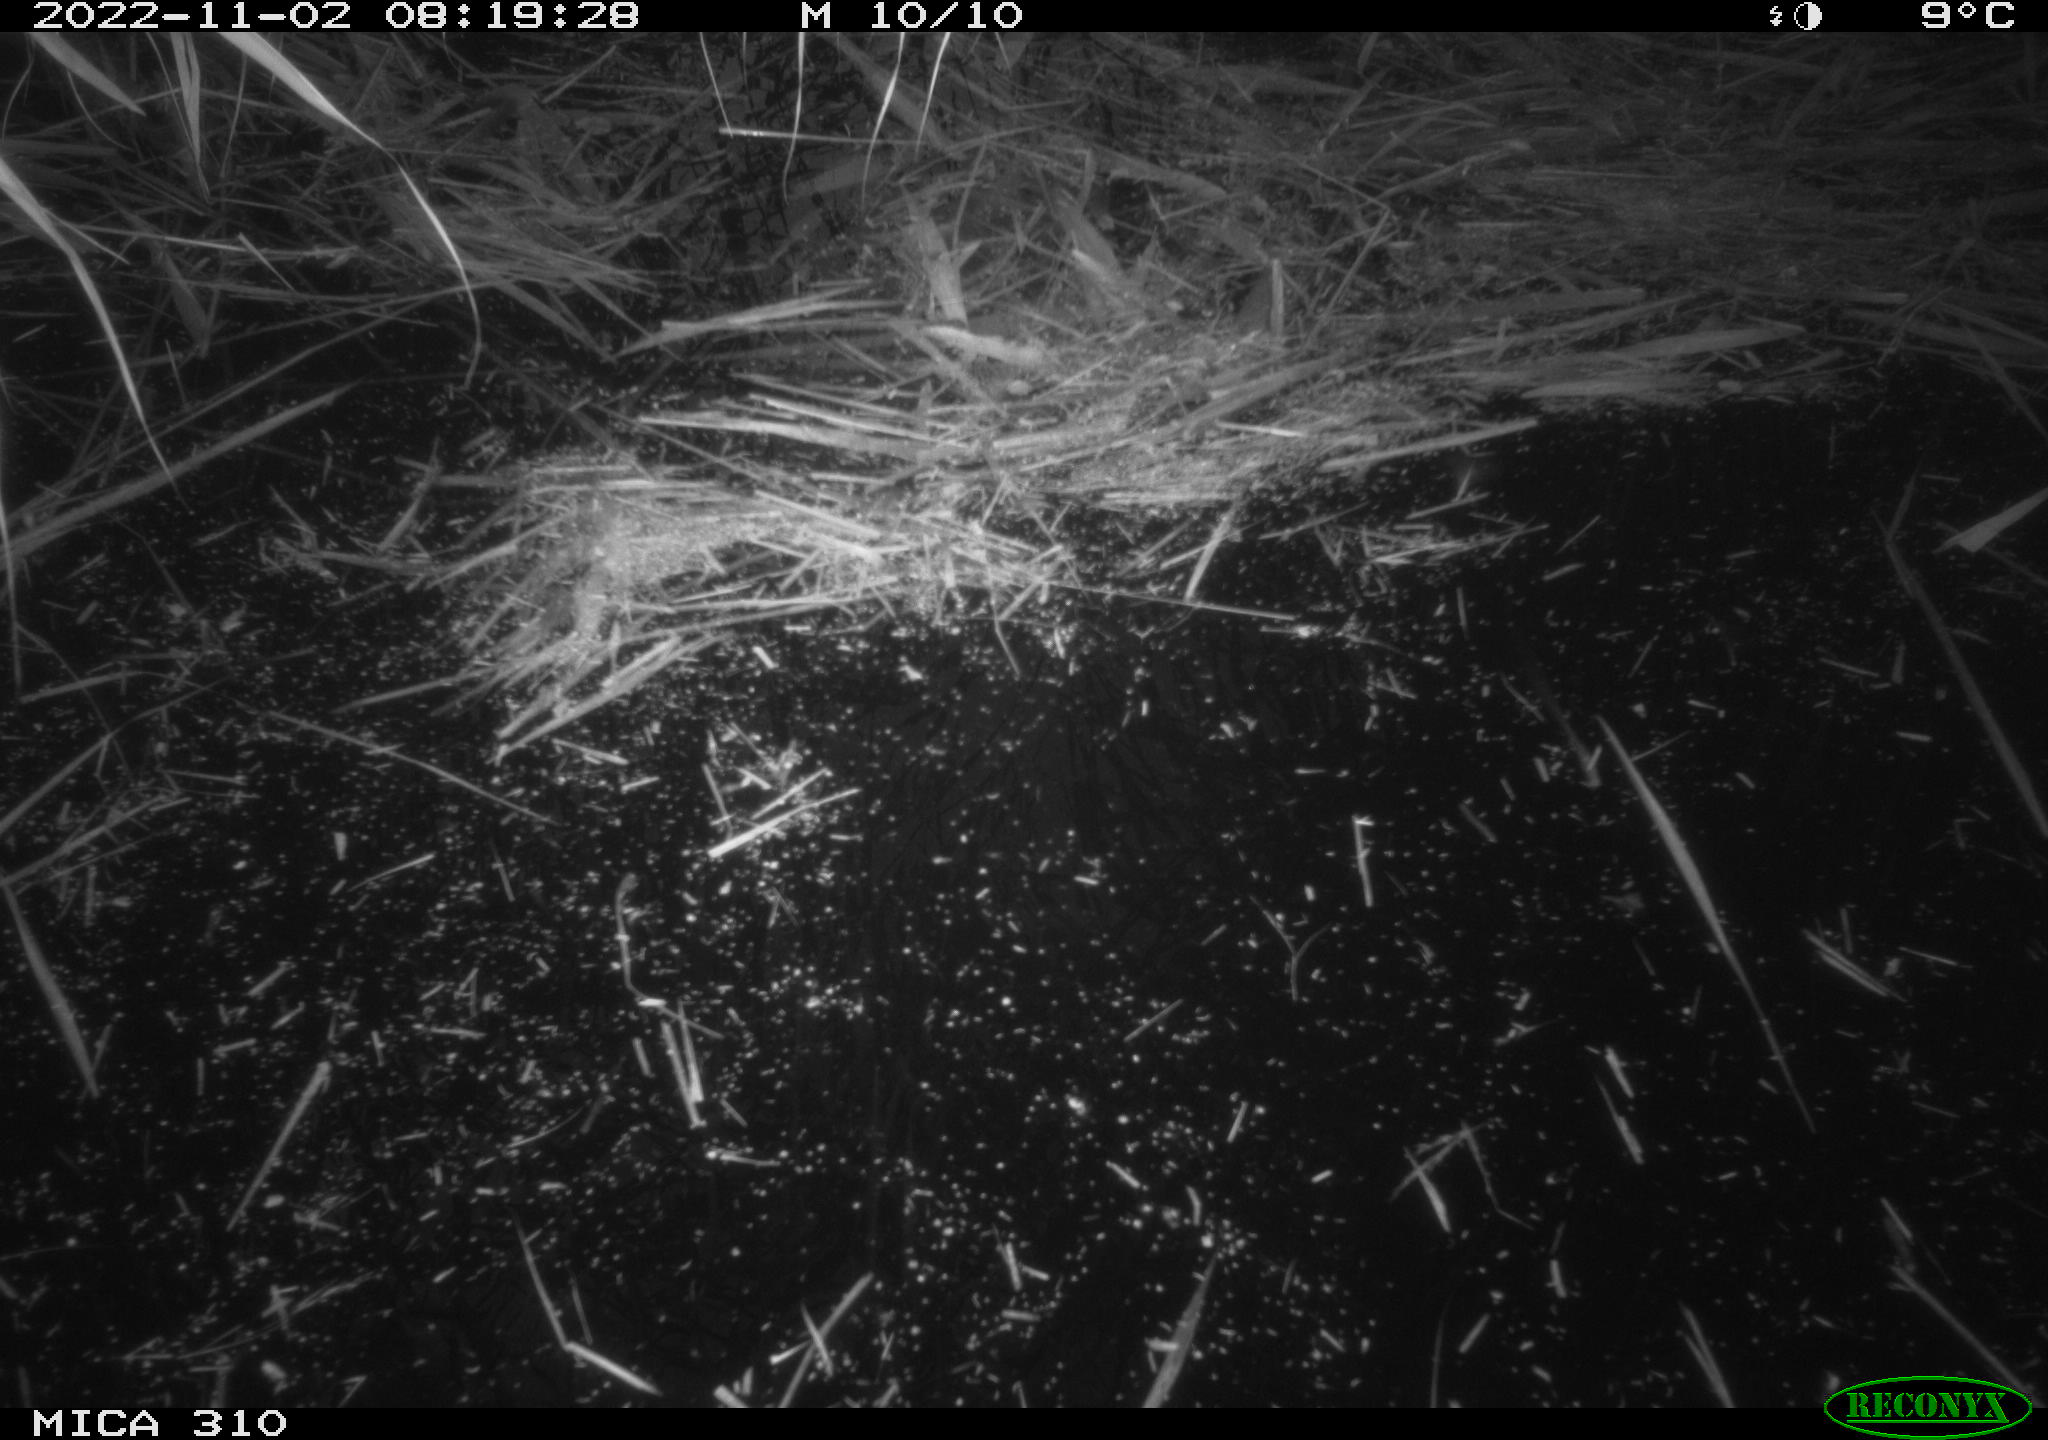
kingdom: Animalia
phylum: Chordata
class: Aves
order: Anseriformes
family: Anatidae
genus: Anas
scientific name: Anas
